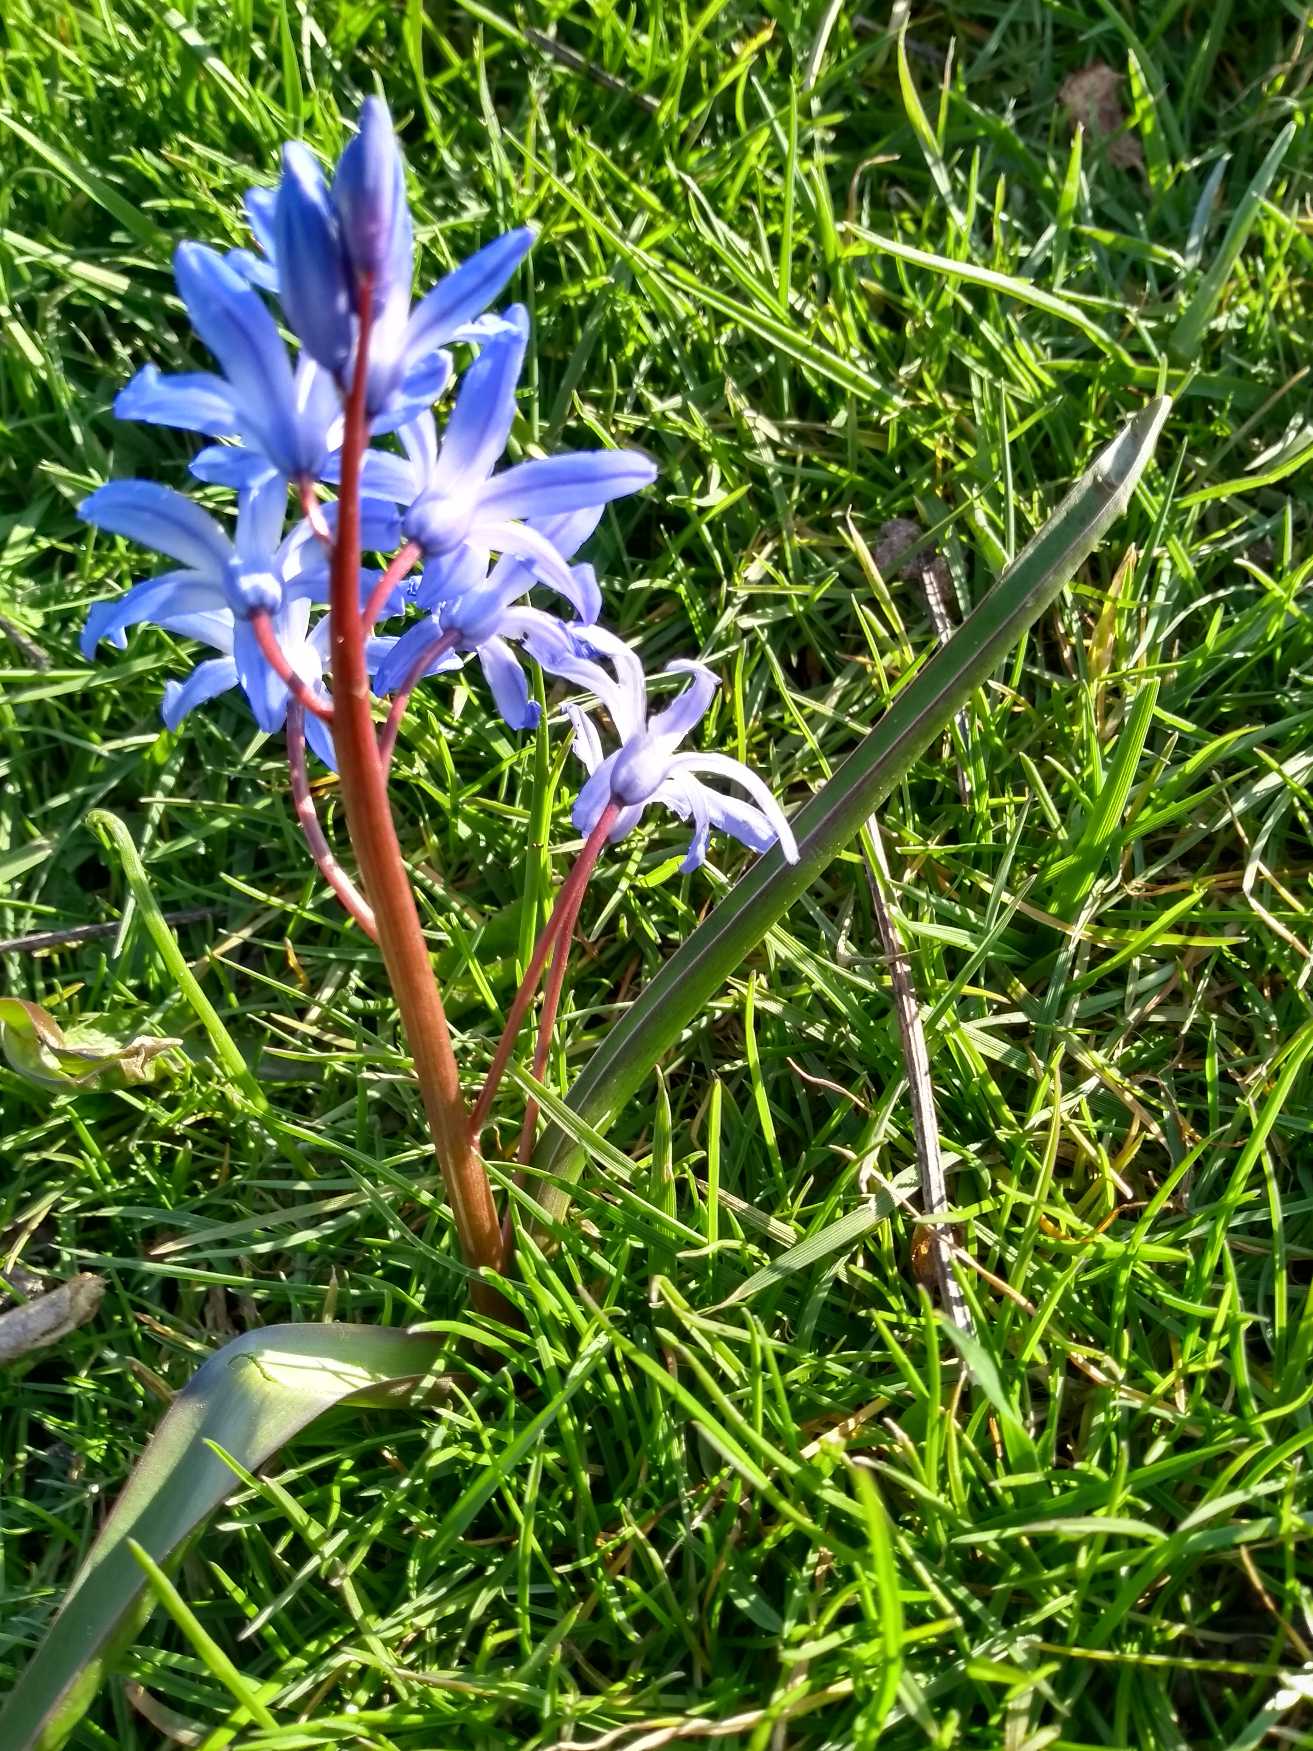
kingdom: Plantae
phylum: Tracheophyta
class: Liliopsida
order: Asparagales
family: Asparagaceae
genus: Scilla
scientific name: Scilla forbesii
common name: Almindelig snepryd
